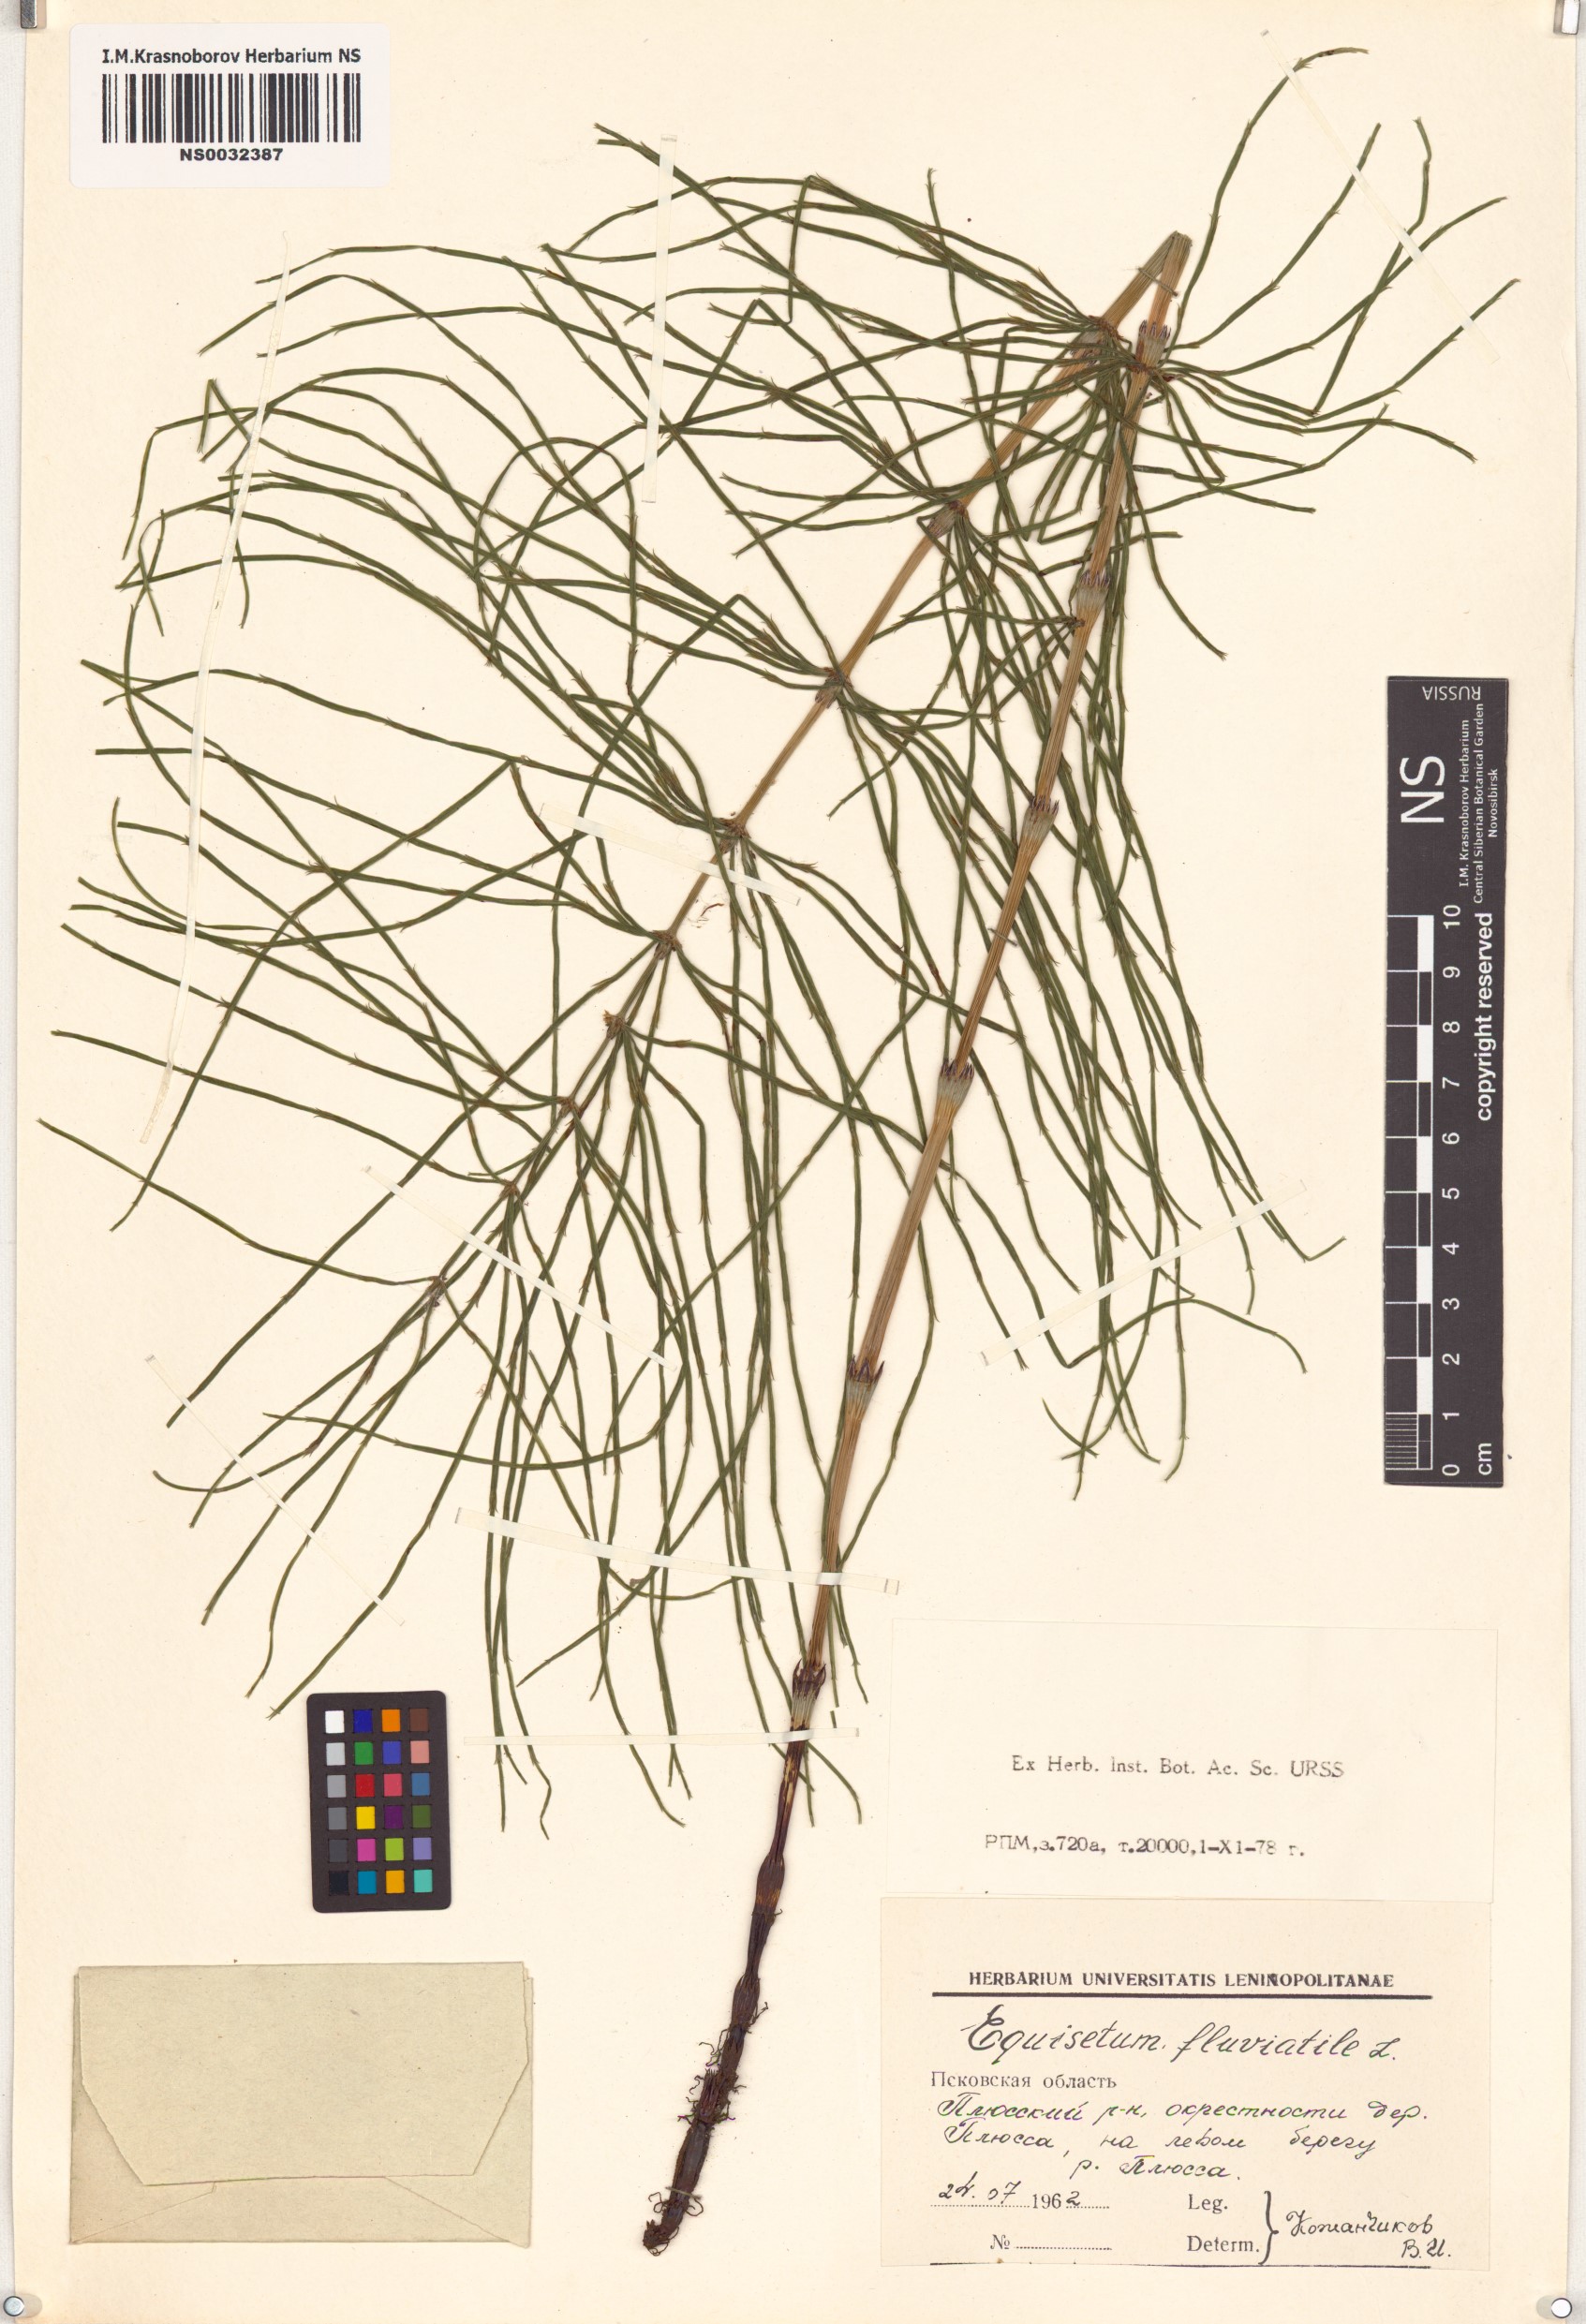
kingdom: Plantae
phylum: Tracheophyta
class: Polypodiopsida
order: Equisetales
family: Equisetaceae
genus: Equisetum
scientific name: Equisetum fluviatile
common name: Water horsetail
